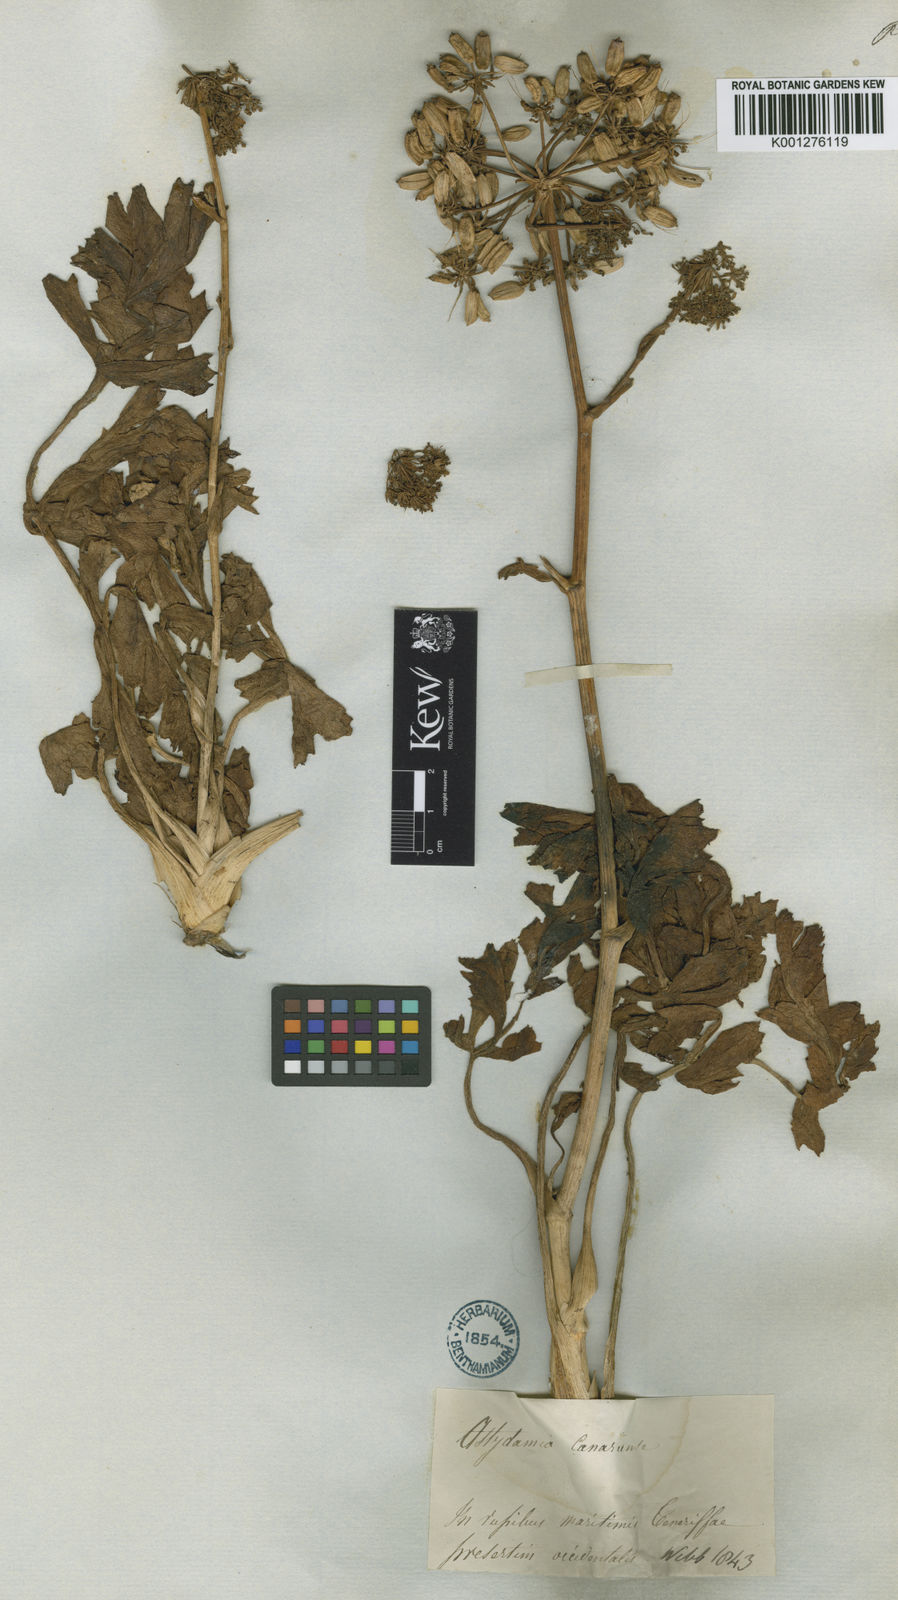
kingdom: Plantae
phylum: Tracheophyta
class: Magnoliopsida
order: Apiales
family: Apiaceae
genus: Astydamia
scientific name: Astydamia latifolia
